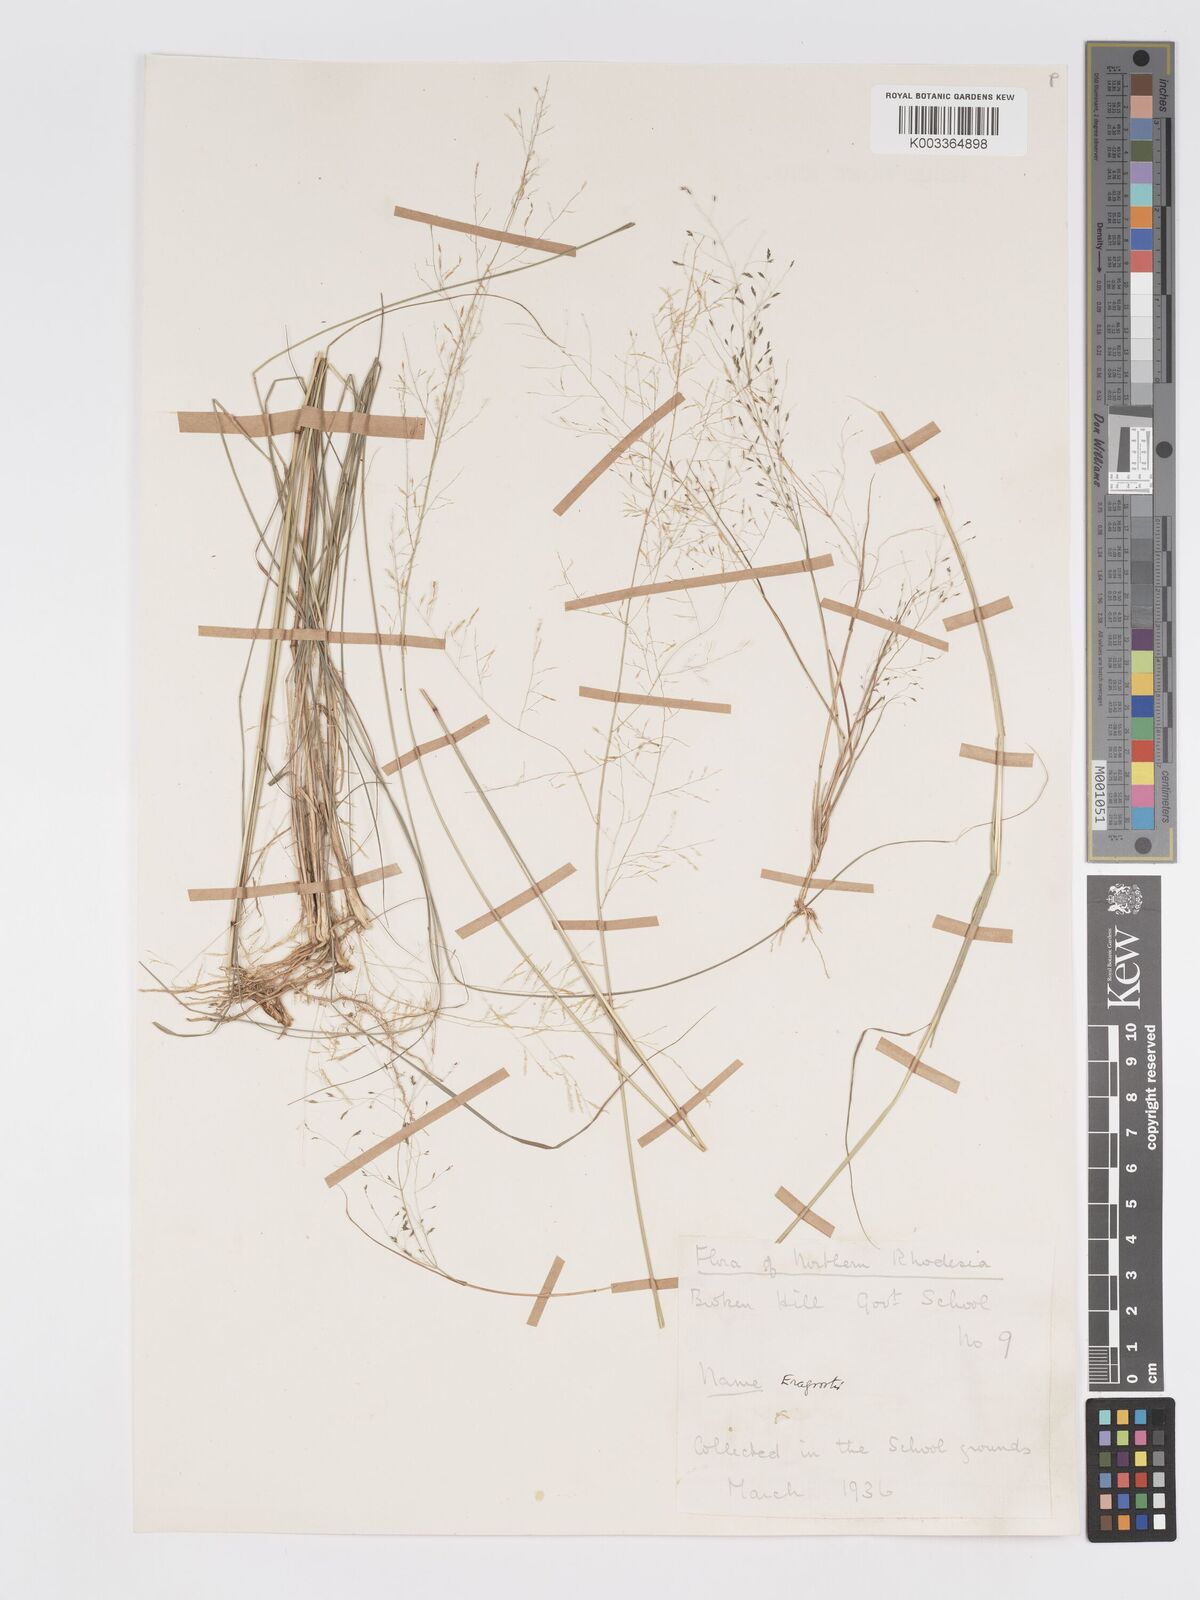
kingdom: Plantae
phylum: Tracheophyta
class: Liliopsida
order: Poales
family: Poaceae
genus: Eragrostis
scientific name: Eragrostis pilosa
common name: Indian lovegrass
